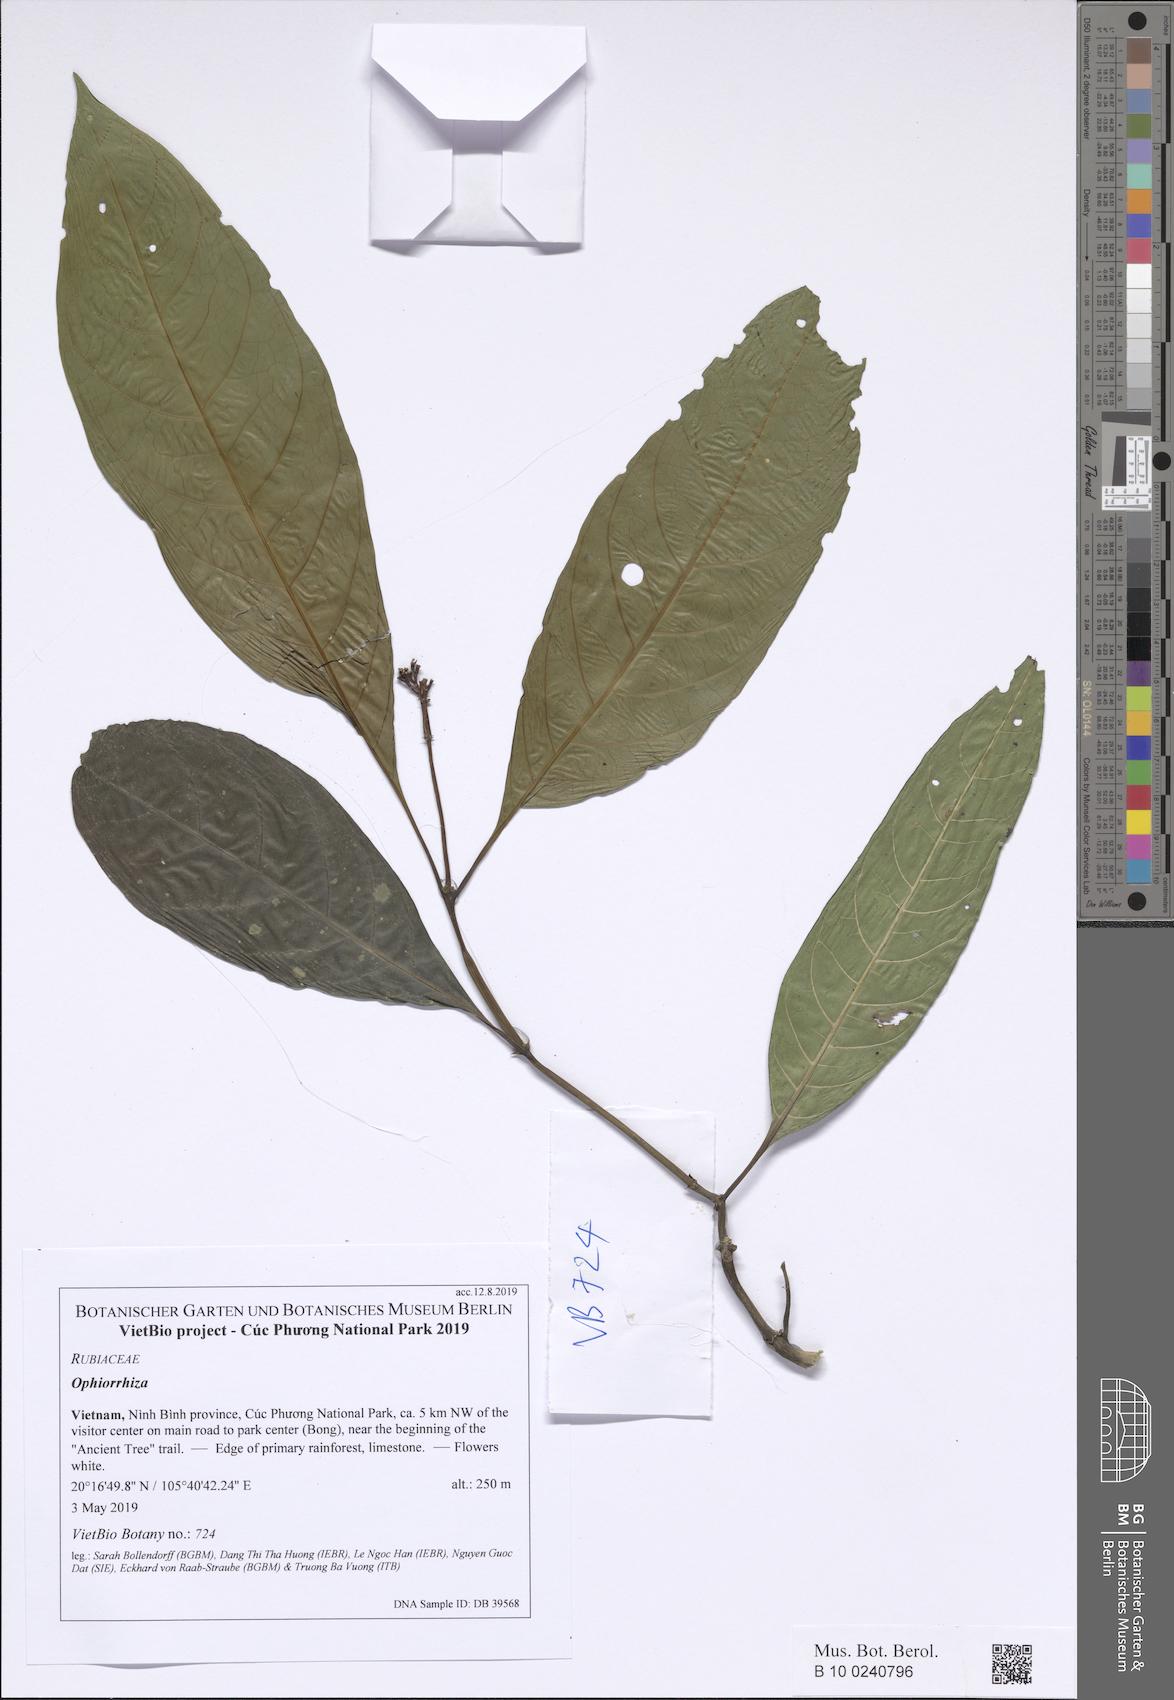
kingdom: Plantae
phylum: Tracheophyta
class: Magnoliopsida
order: Gentianales
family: Rubiaceae
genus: Psychotria
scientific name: Psychotria
